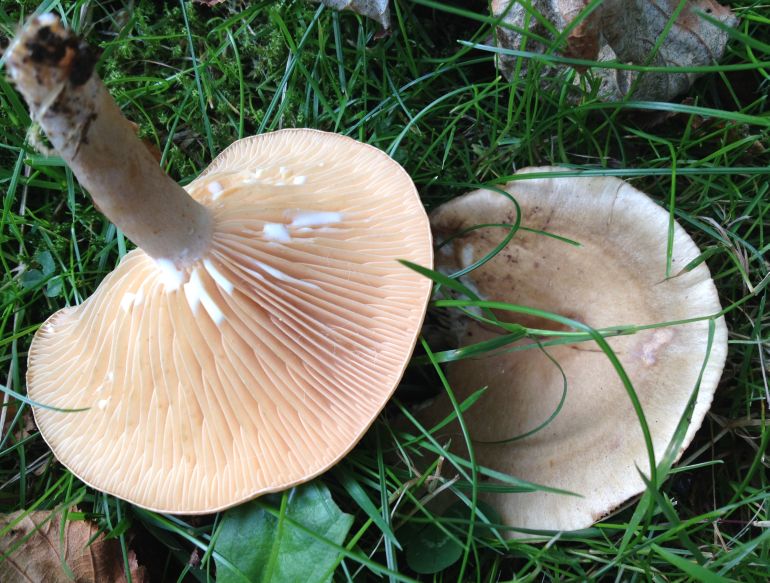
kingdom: Fungi
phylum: Basidiomycota
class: Agaricomycetes
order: Russulales
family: Russulaceae
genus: Lactarius
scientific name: Lactarius pyrogalus
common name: hassel-mælkehat
